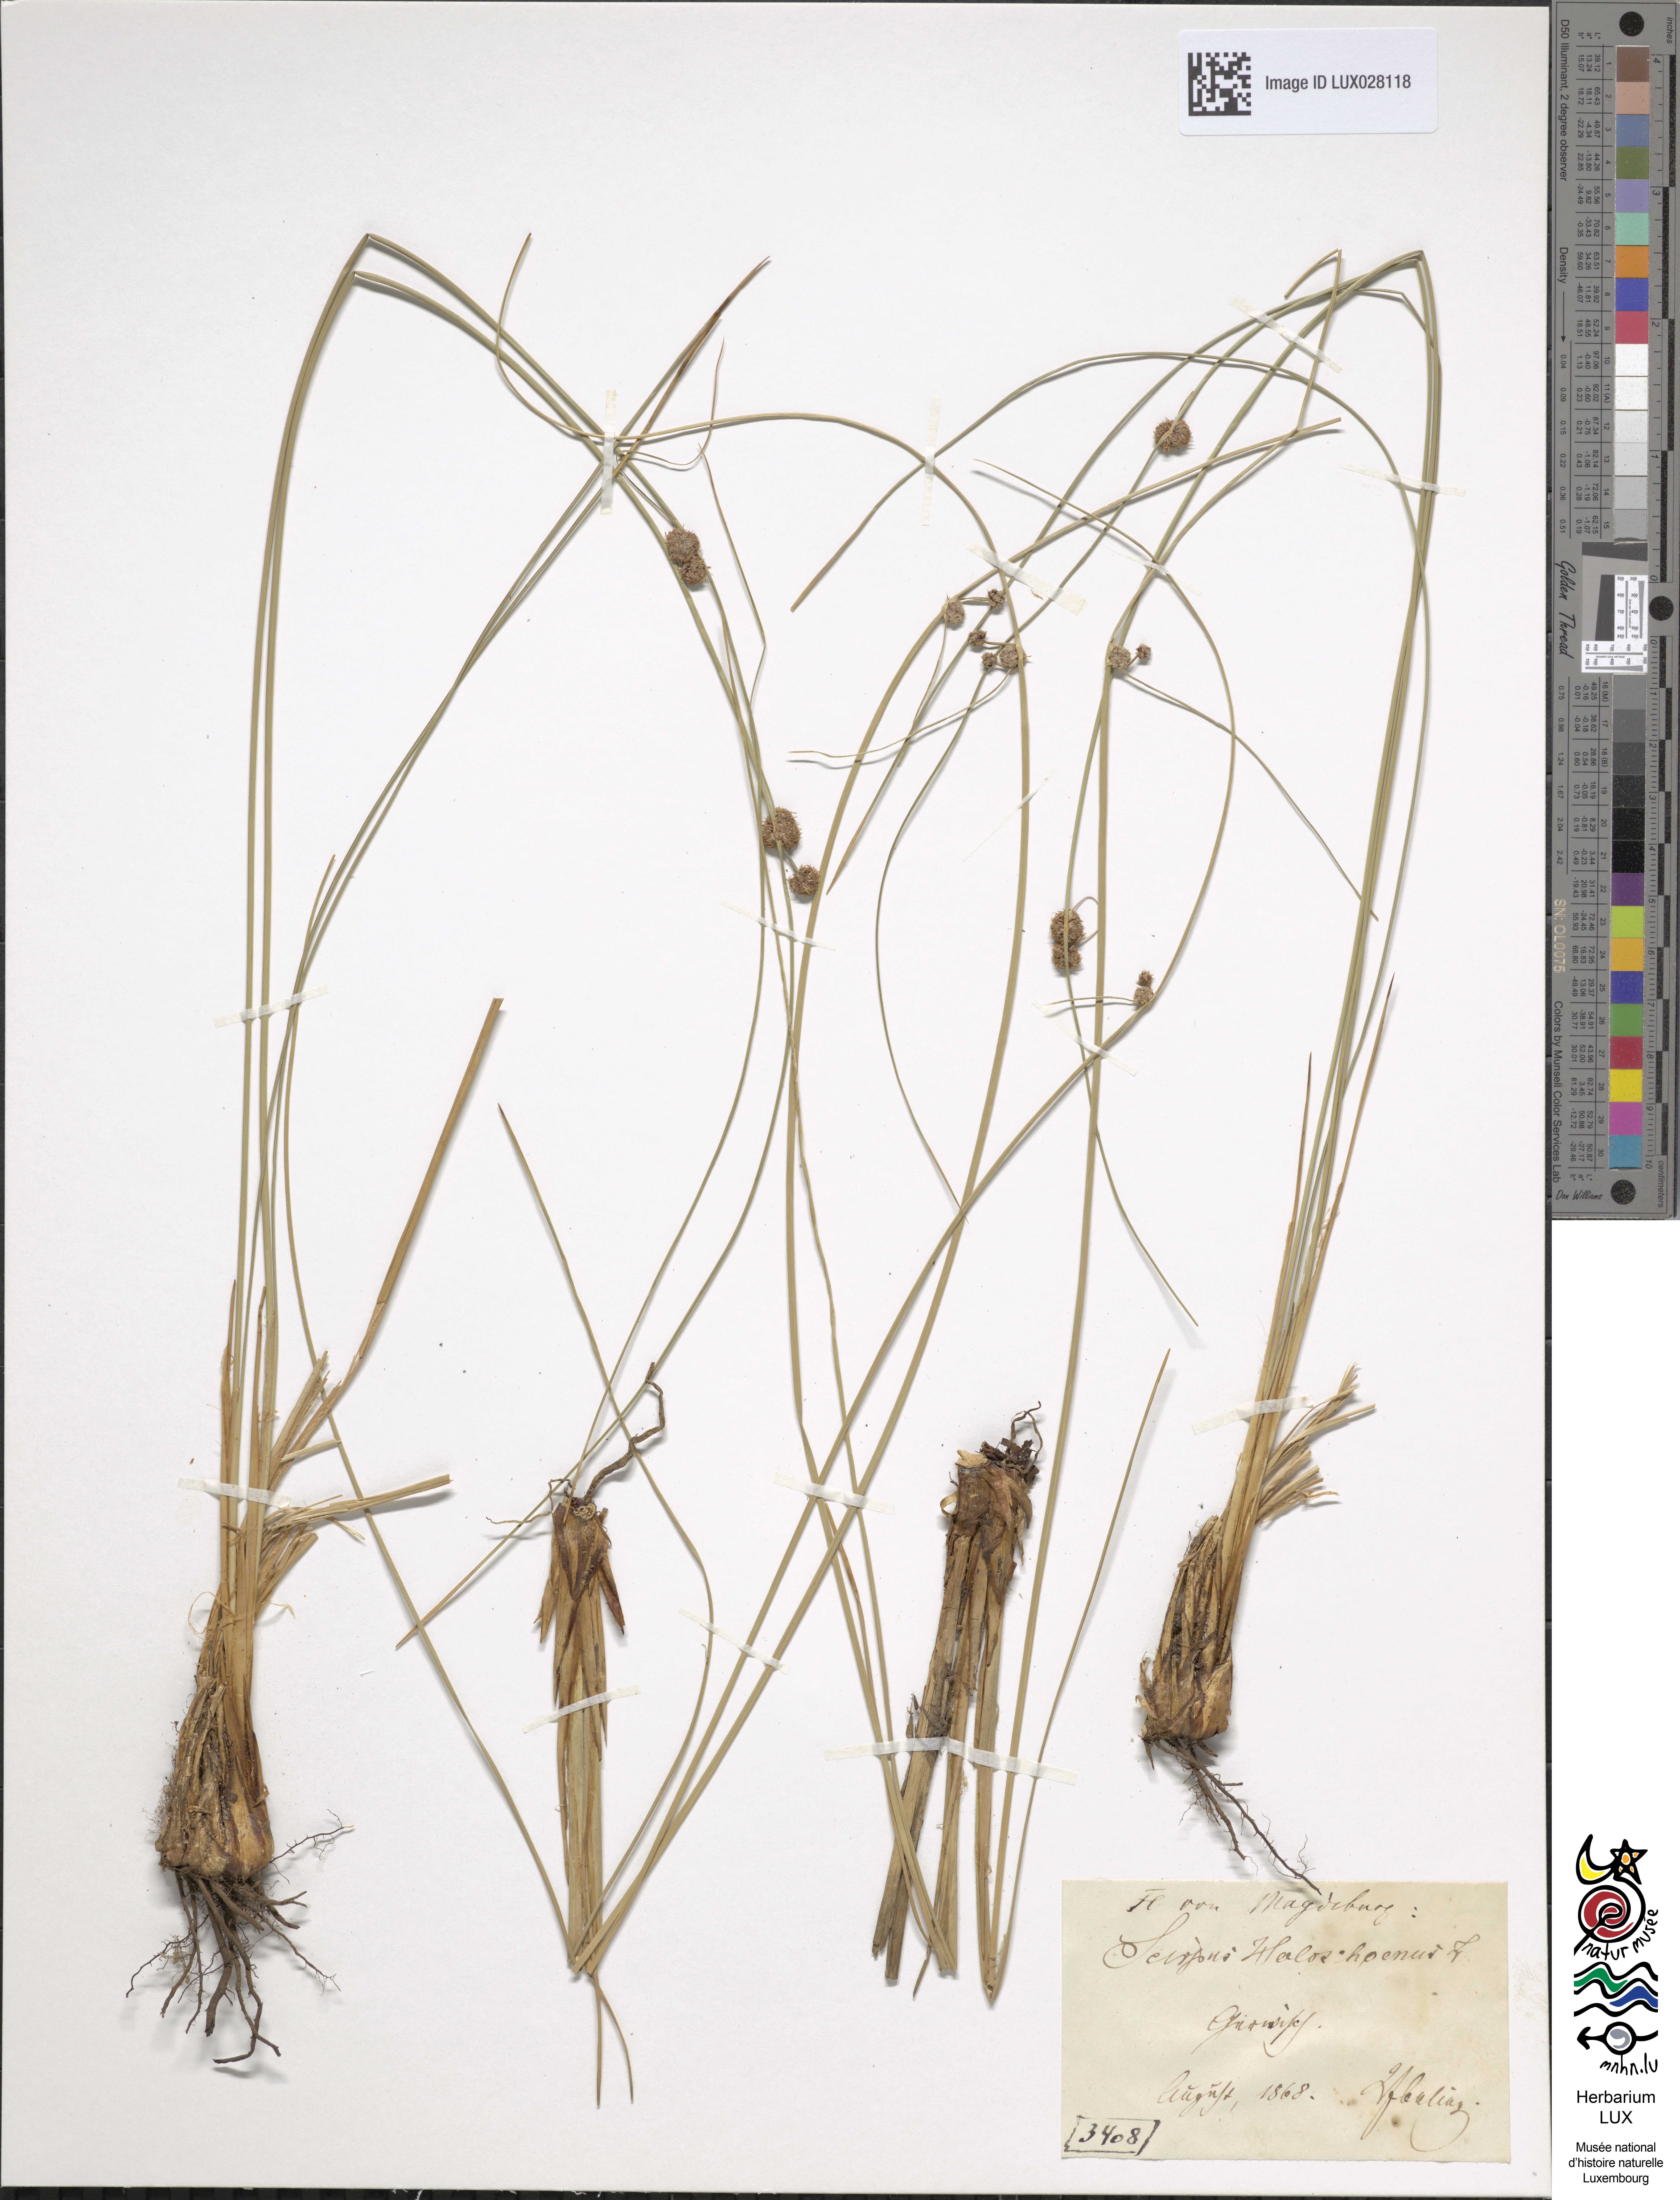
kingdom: Plantae
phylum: Tracheophyta
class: Liliopsida
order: Poales
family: Cyperaceae
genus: Scirpoides
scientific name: Scirpoides holoschoenus
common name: Round-headed club-rush
